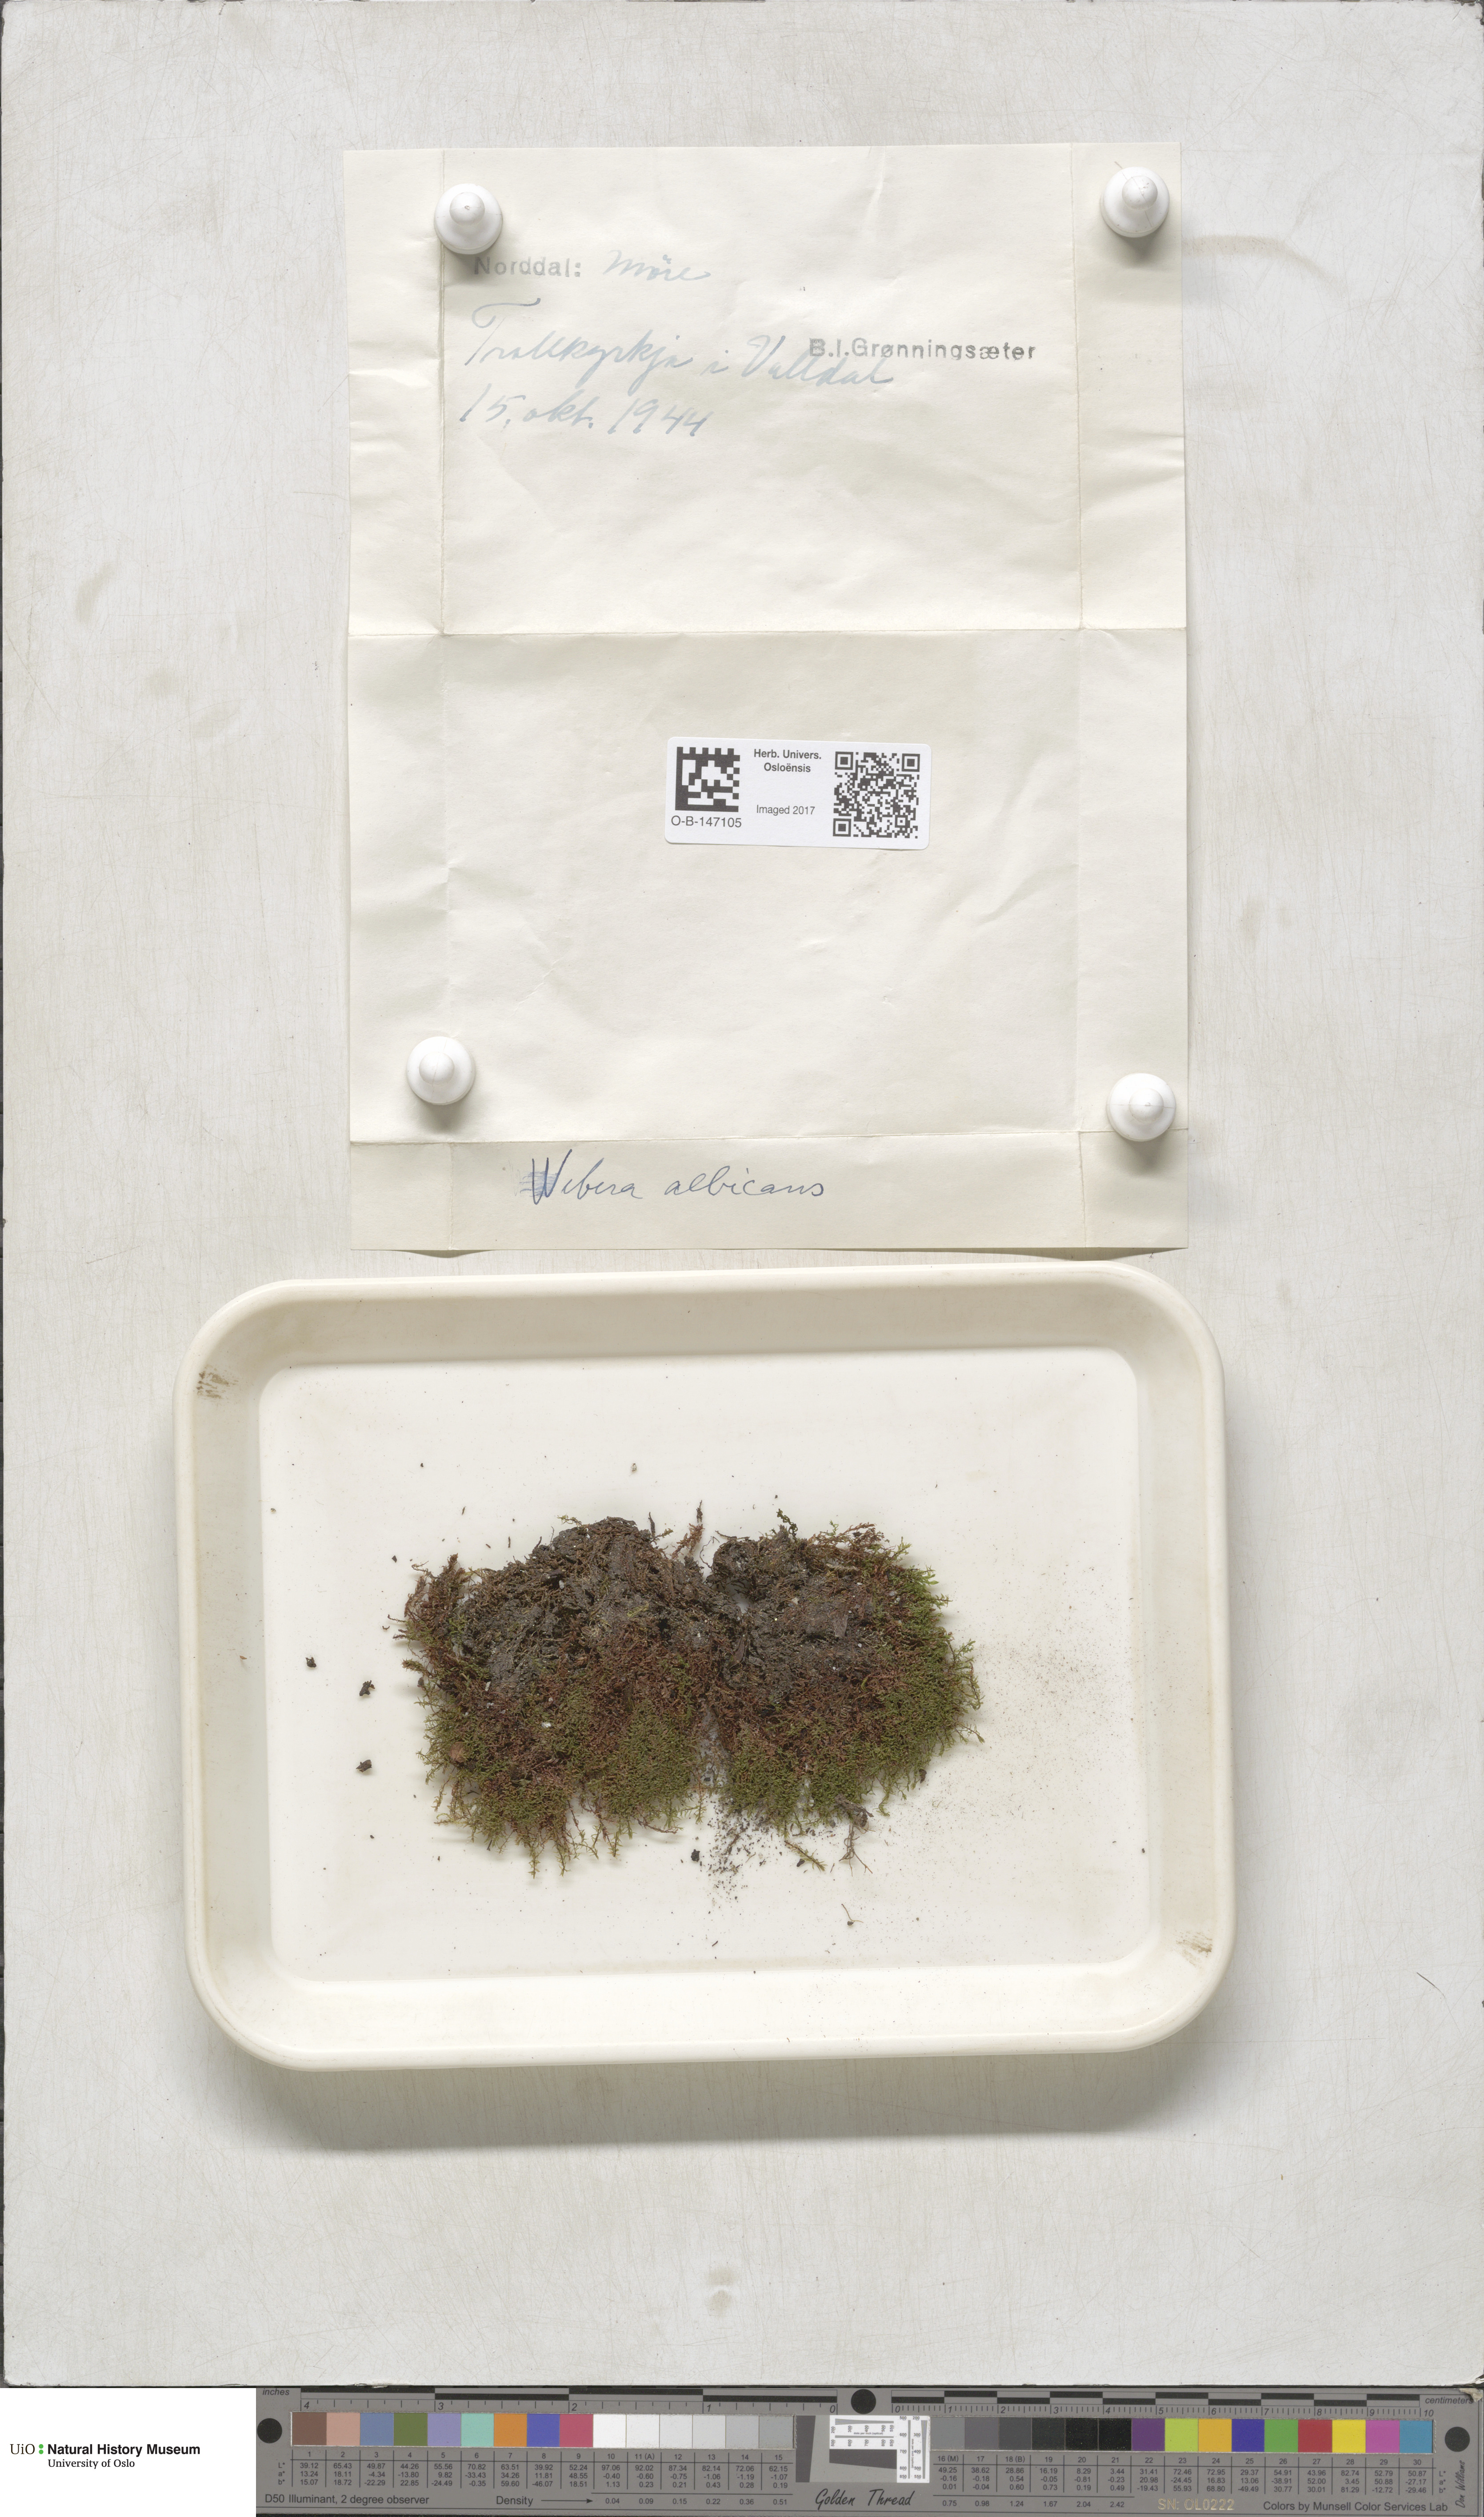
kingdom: Plantae
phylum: Bryophyta
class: Bryopsida
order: Bryales
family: Mniaceae
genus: Pohlia
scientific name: Pohlia wahlenbergii
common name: Wahlenberg's nodding moss
